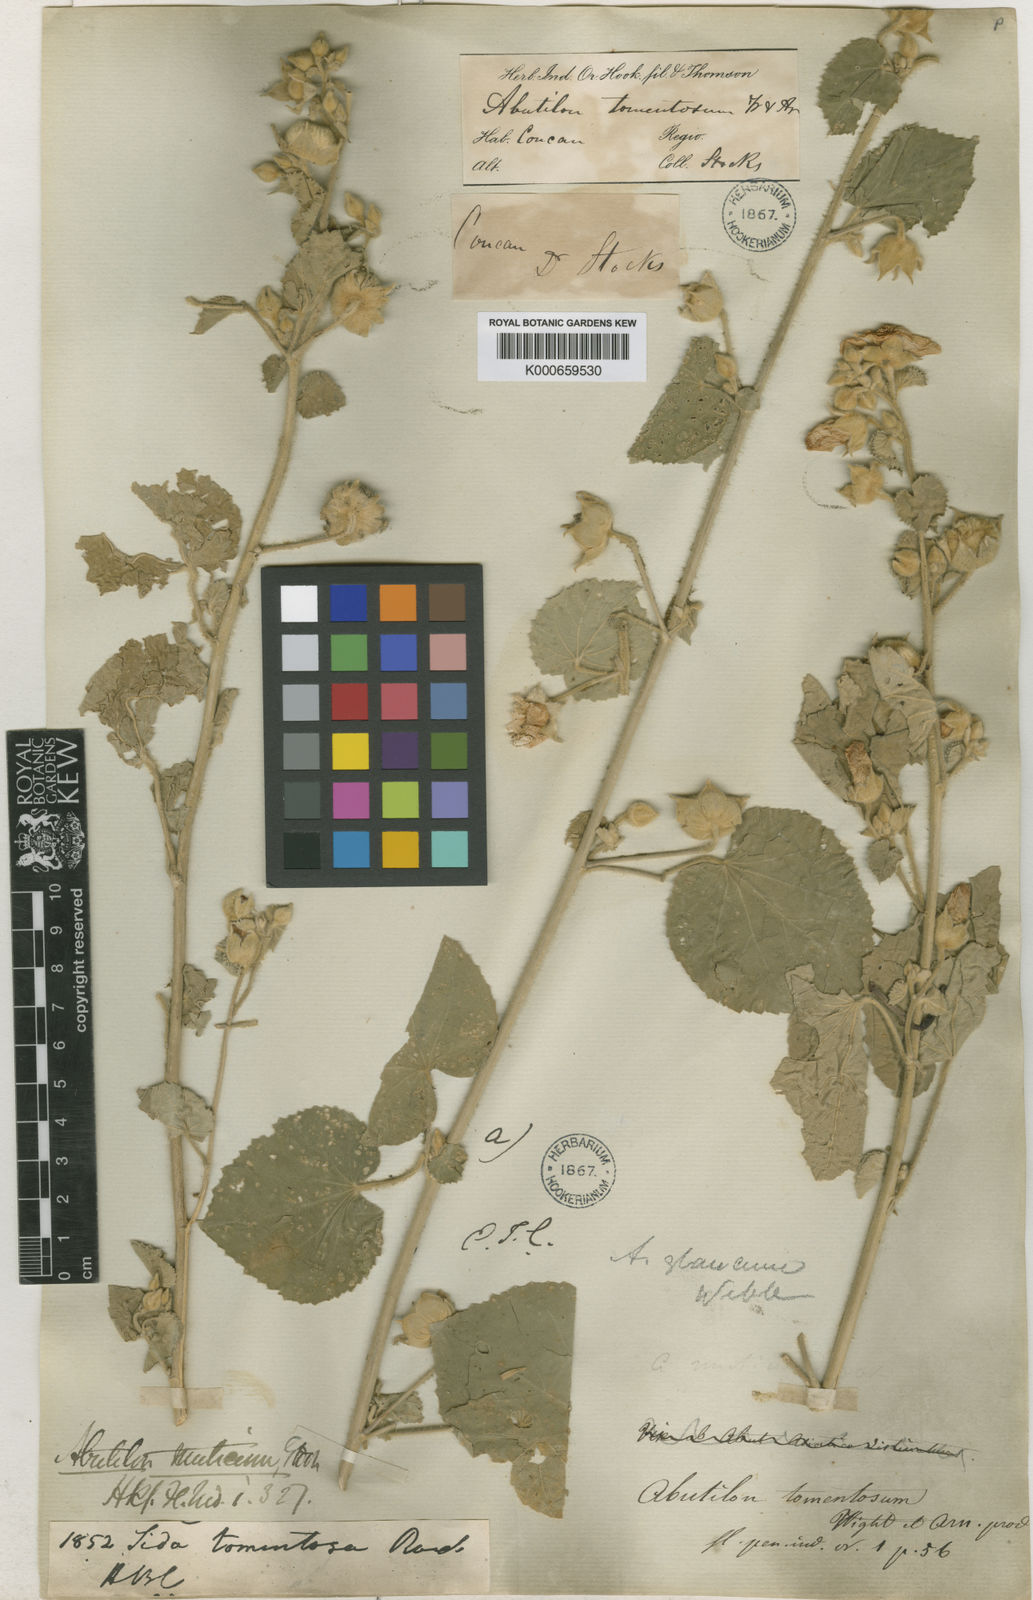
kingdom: Plantae
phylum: Tracheophyta
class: Magnoliopsida
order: Malvales
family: Malvaceae
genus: Abutilon
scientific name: Abutilon pannosum
